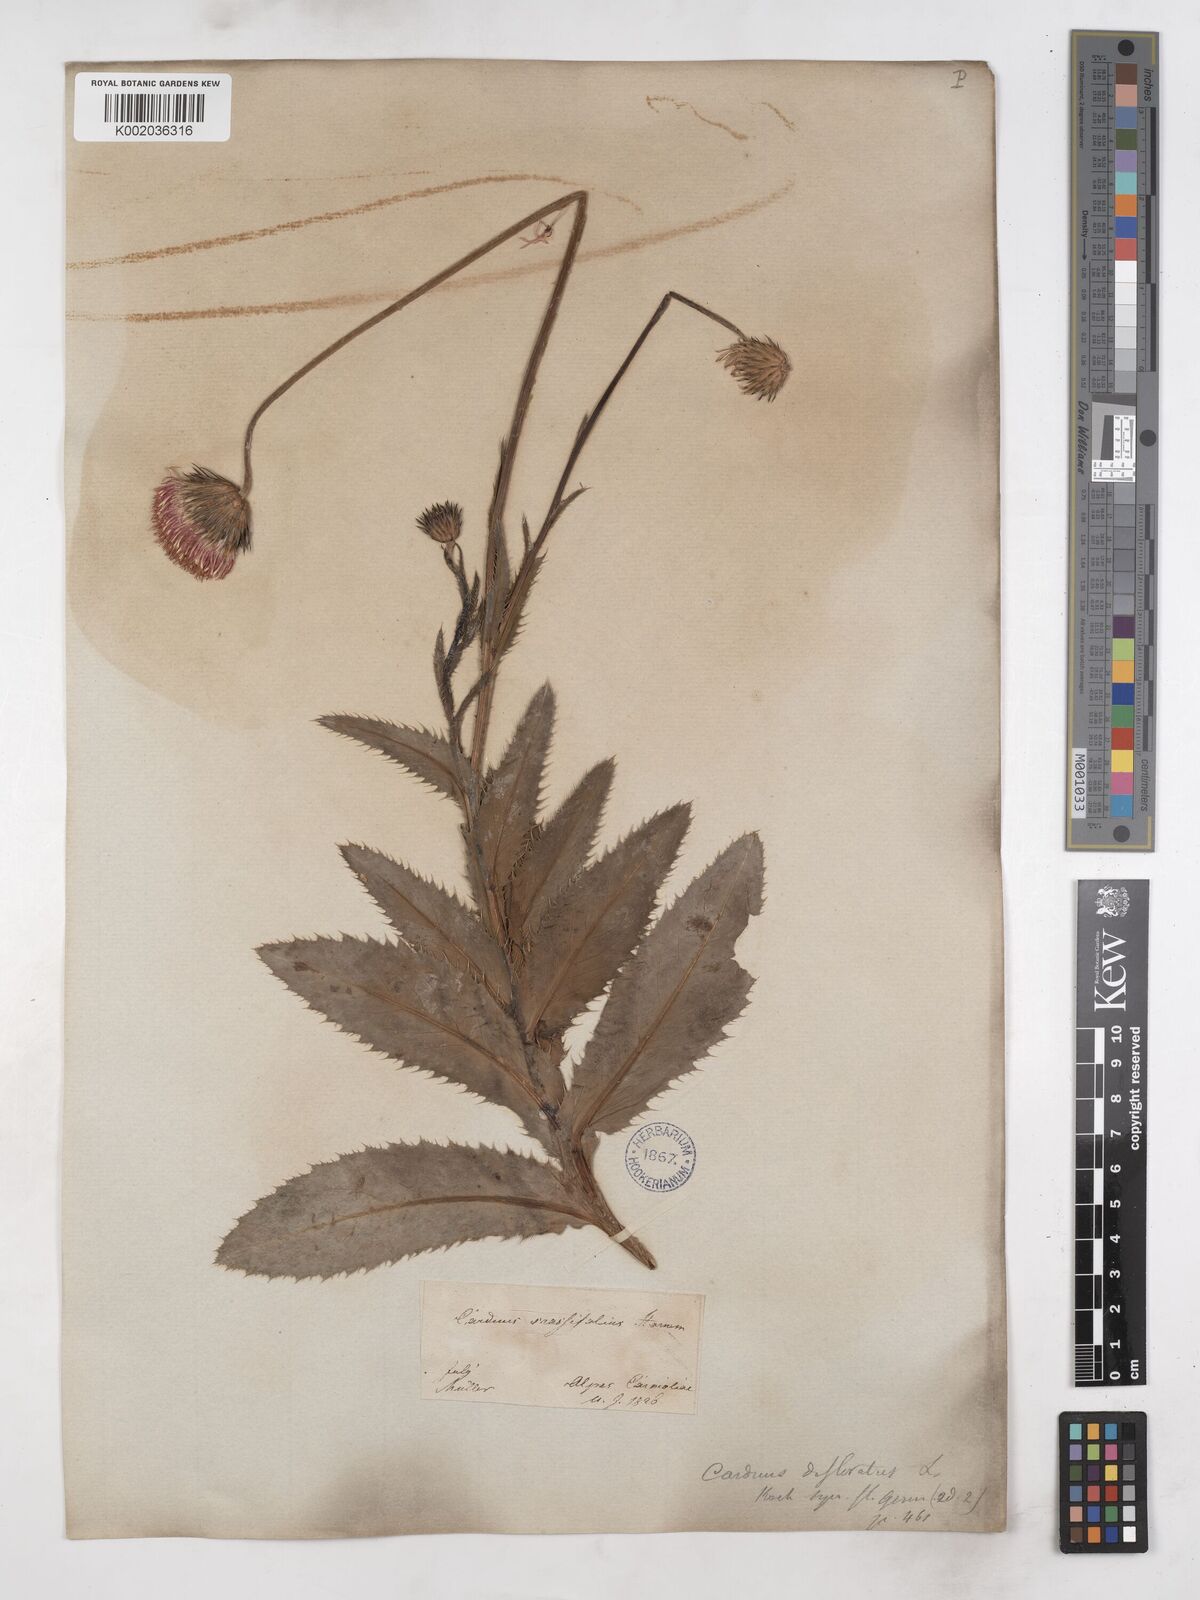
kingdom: Plantae
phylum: Tracheophyta
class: Magnoliopsida
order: Asterales
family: Asteraceae
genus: Carduus
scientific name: Carduus defloratus
